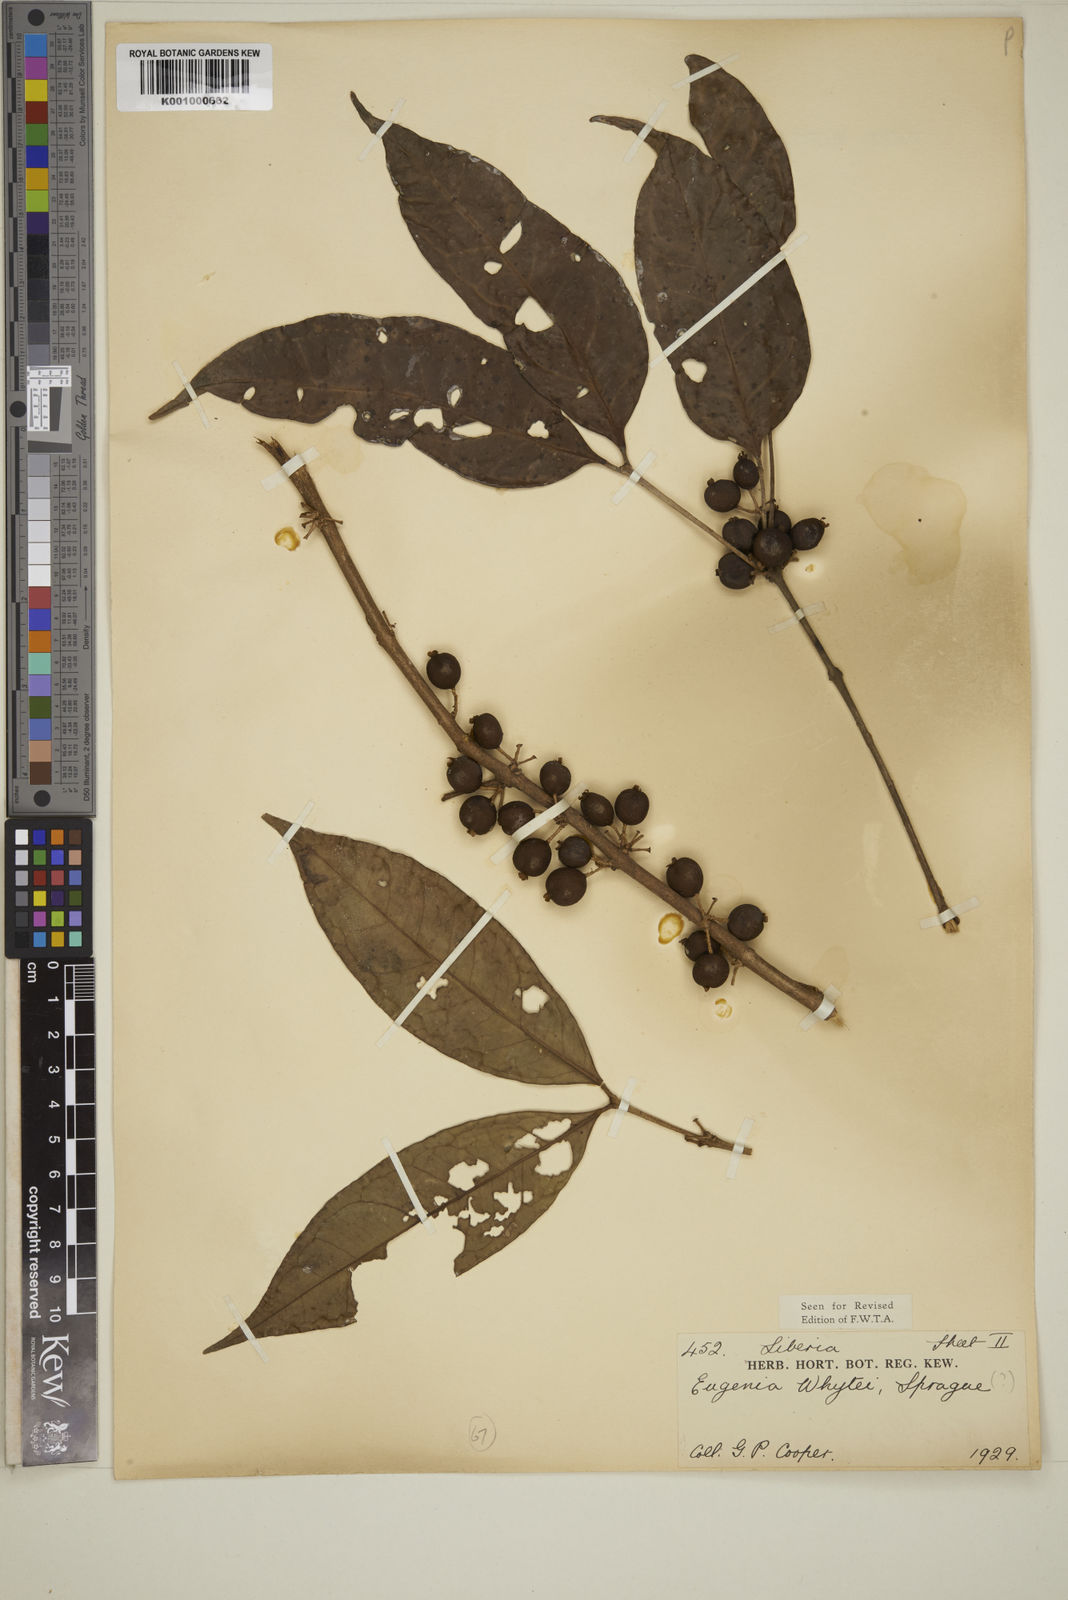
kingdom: Plantae
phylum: Tracheophyta
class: Magnoliopsida
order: Myrtales
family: Myrtaceae
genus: Eugenia
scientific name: Eugenia whytei
